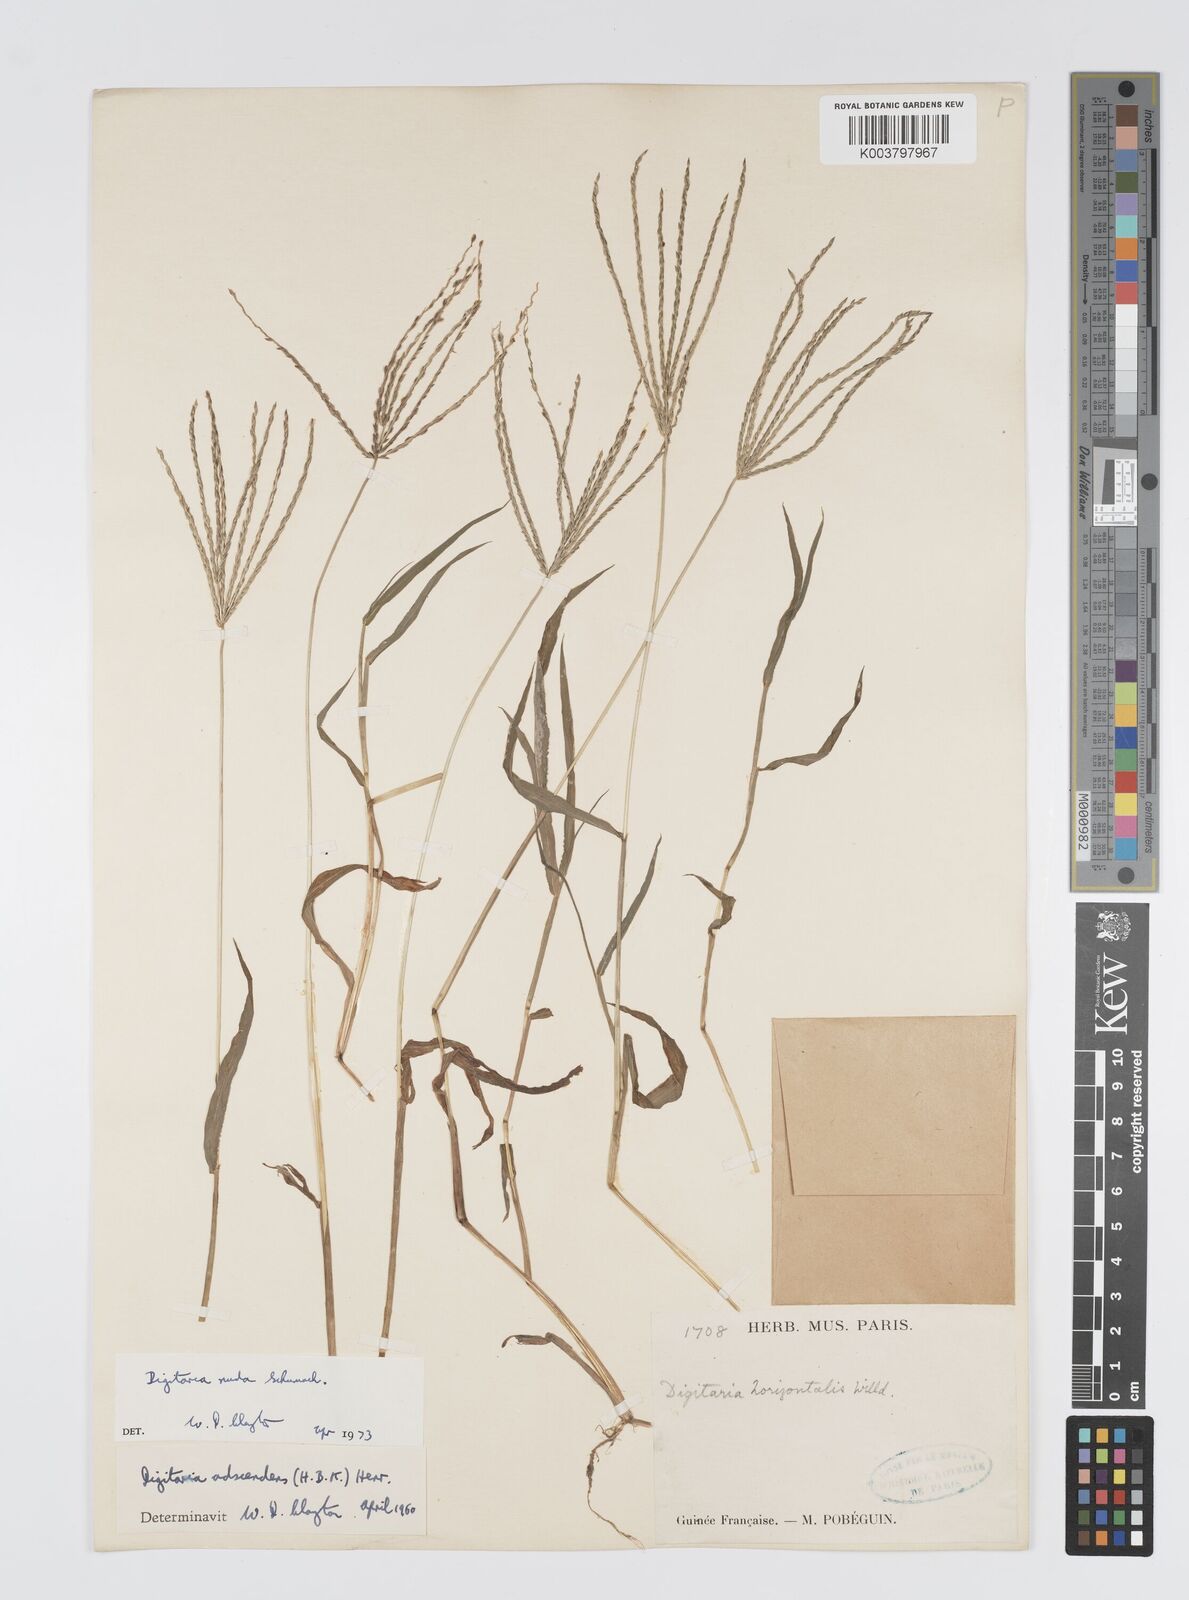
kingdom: Plantae
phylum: Tracheophyta
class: Liliopsida
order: Poales
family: Poaceae
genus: Digitaria
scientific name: Digitaria nuda
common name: Naked crabgrass
